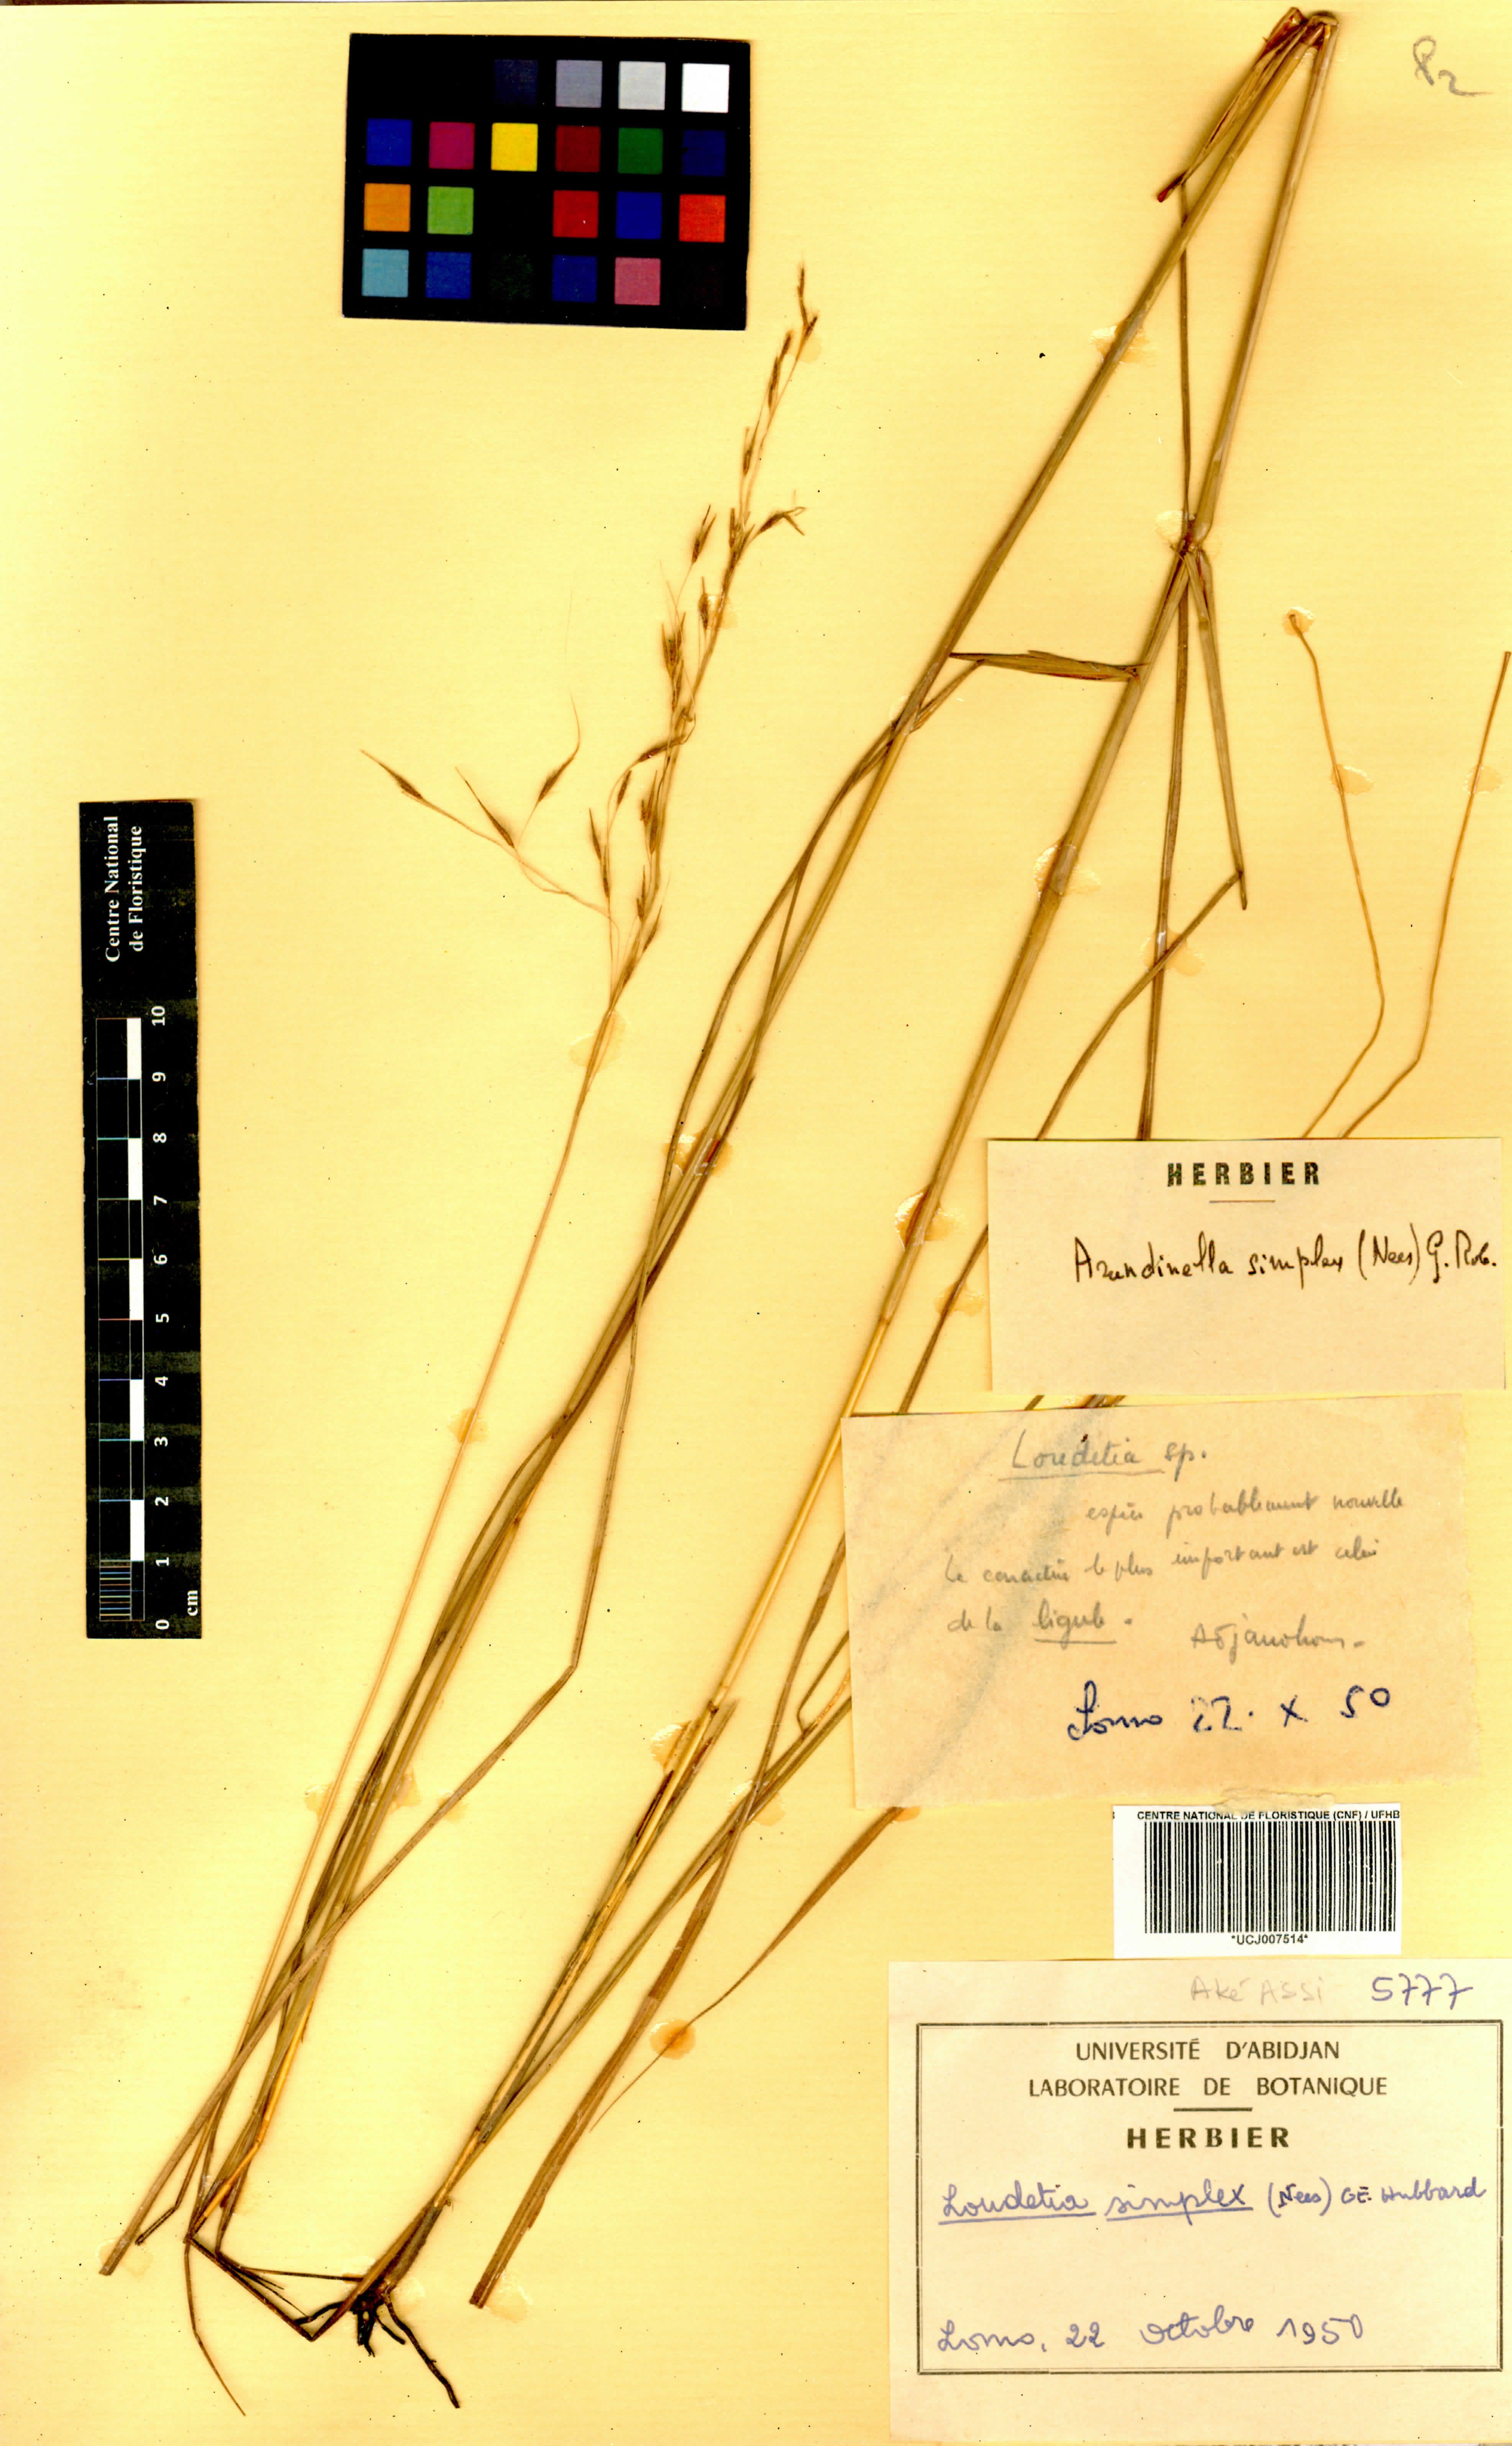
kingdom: Plantae
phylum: Tracheophyta
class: Liliopsida
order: Poales
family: Poaceae
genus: Loudetia
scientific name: Loudetia simplex
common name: Common russet grass
